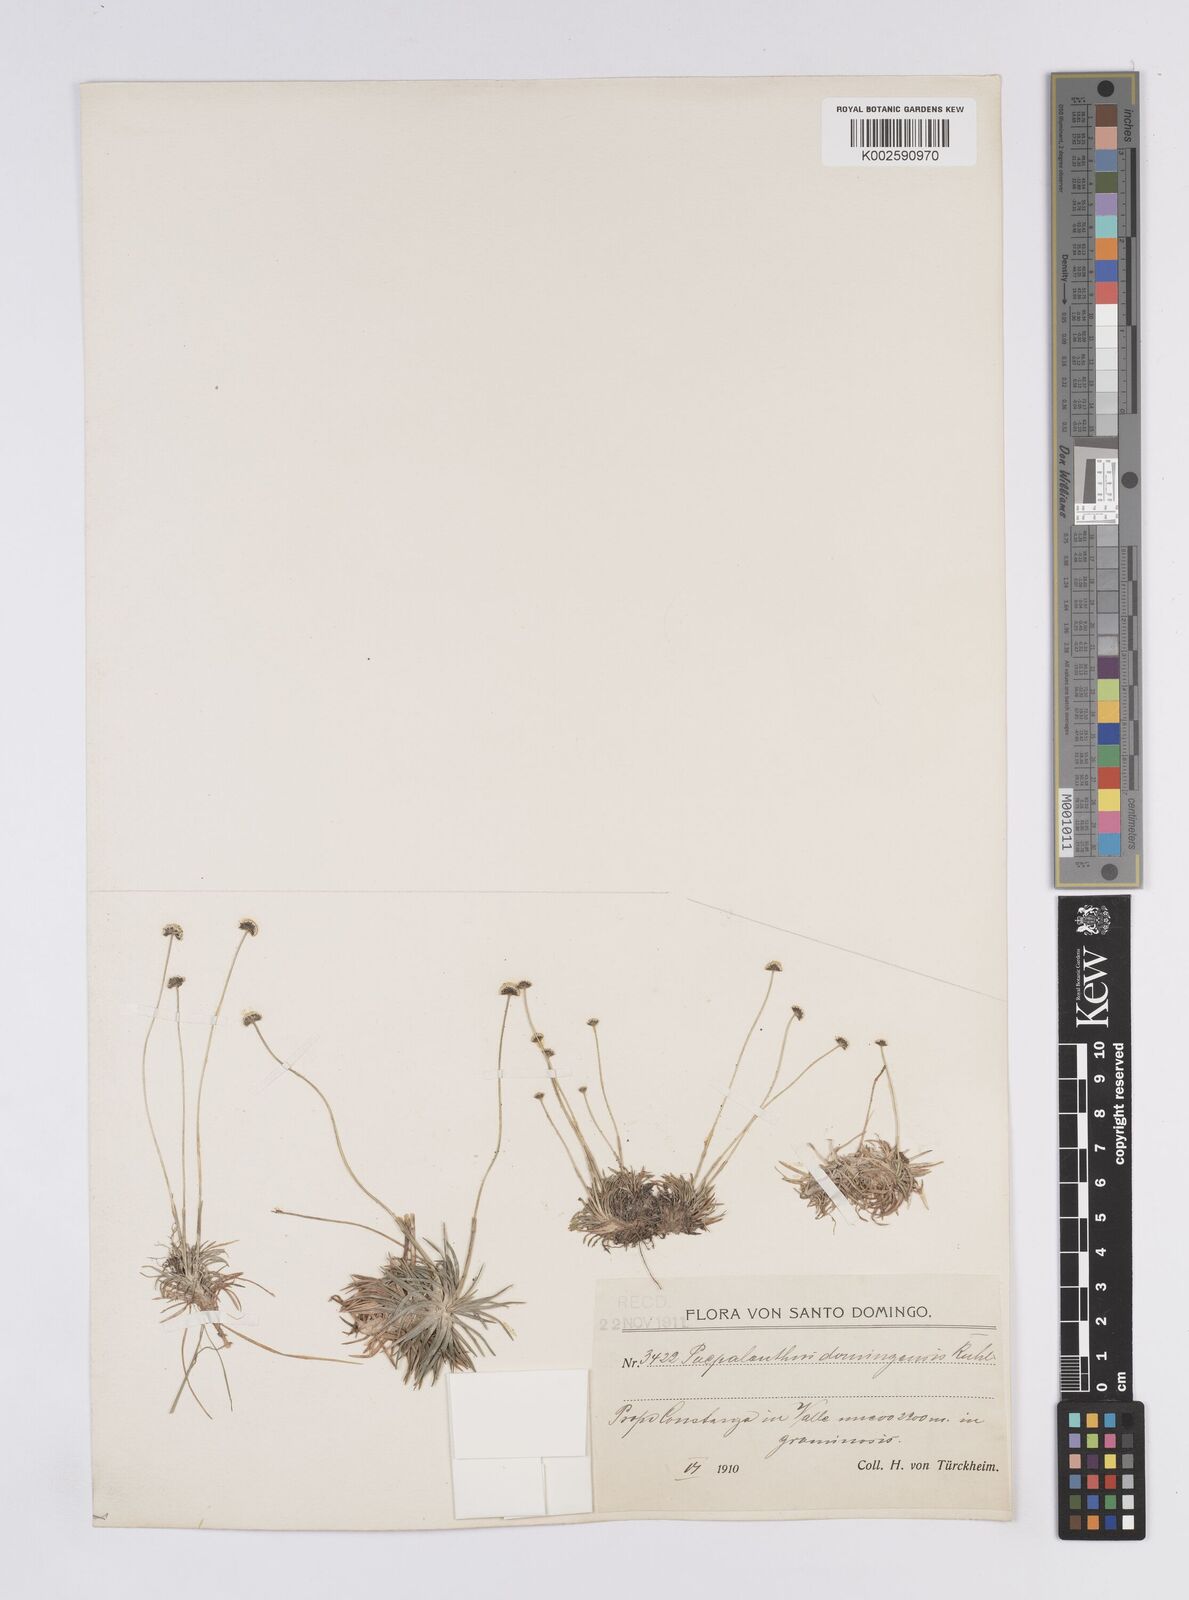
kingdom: Plantae
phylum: Tracheophyta
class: Liliopsida
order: Poales
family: Eriocaulaceae
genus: Paepalanthus
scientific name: Paepalanthus repens
